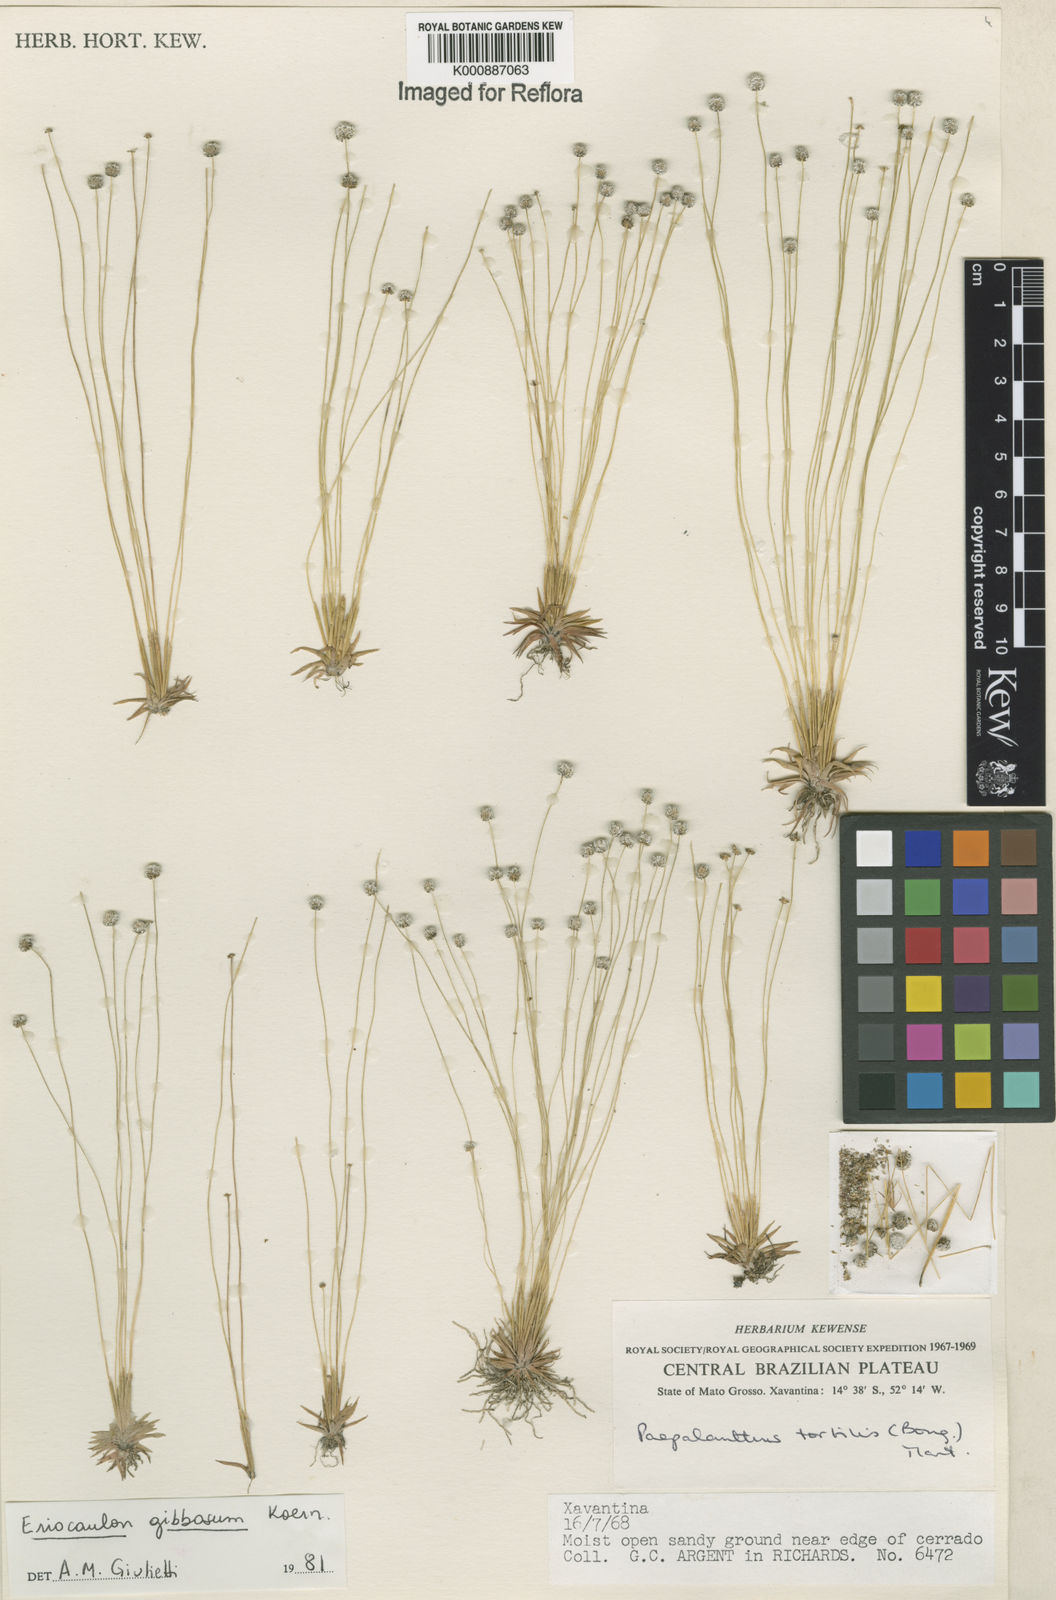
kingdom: Plantae
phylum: Tracheophyta
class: Liliopsida
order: Poales
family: Eriocaulaceae
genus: Eriocaulon
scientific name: Eriocaulon
